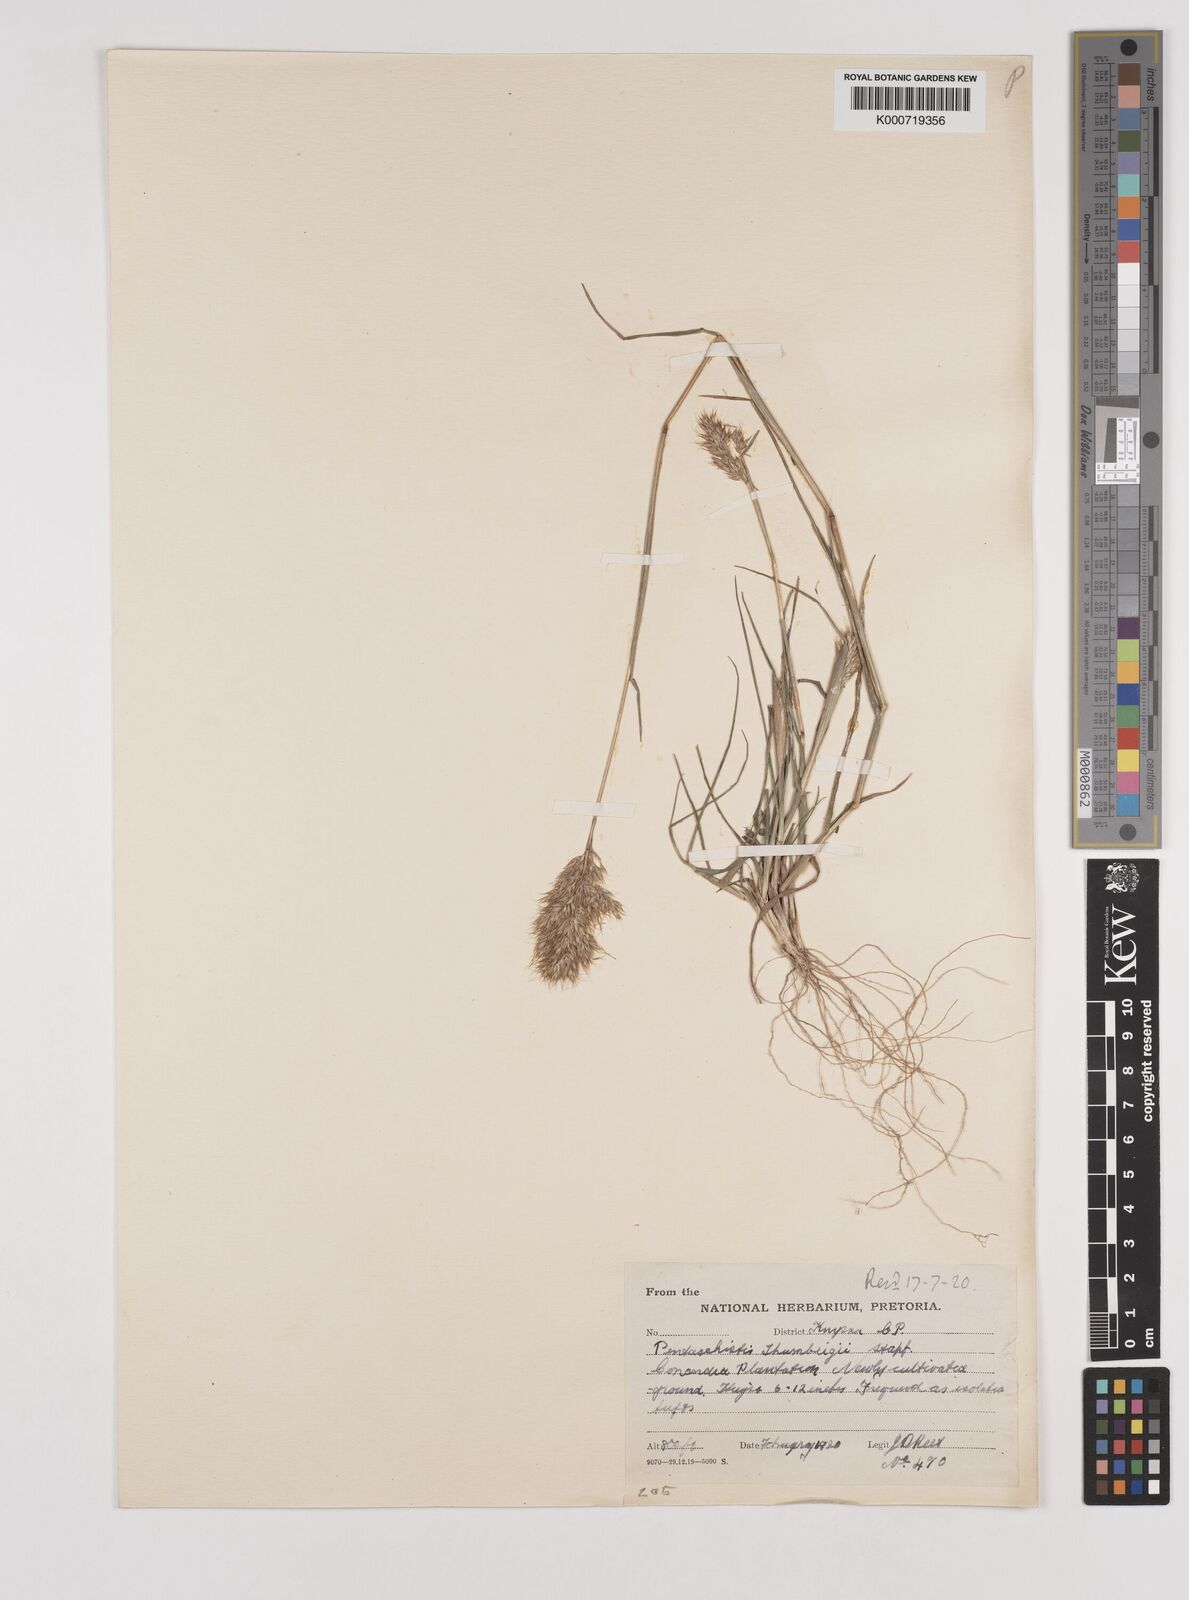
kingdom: Plantae
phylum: Tracheophyta
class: Liliopsida
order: Poales
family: Poaceae
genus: Pentameris
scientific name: Pentameris triseta
